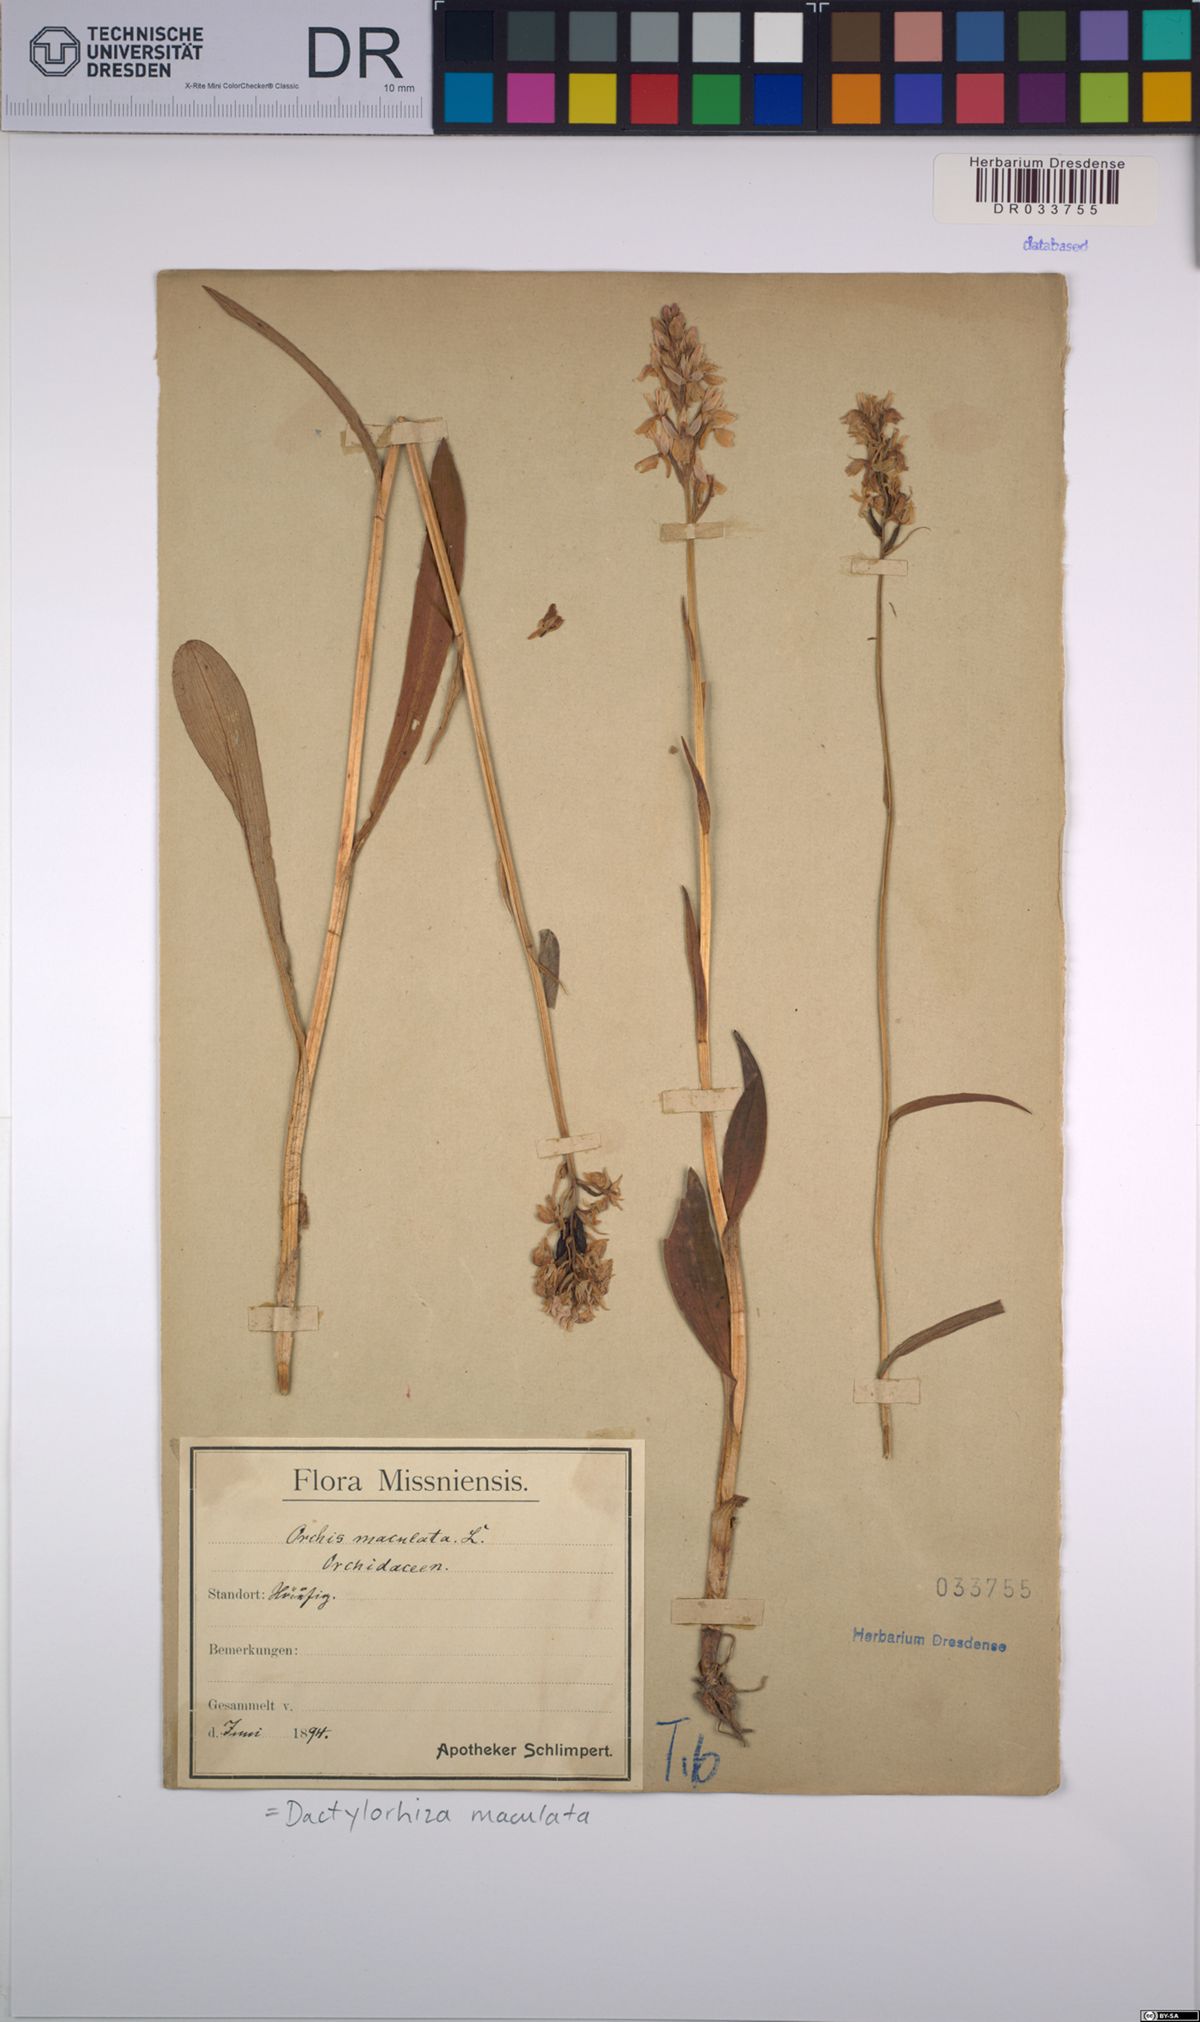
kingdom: Plantae
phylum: Tracheophyta
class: Liliopsida
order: Asparagales
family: Orchidaceae
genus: Dactylorhiza
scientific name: Dactylorhiza maculata
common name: Heath spotted-orchid
